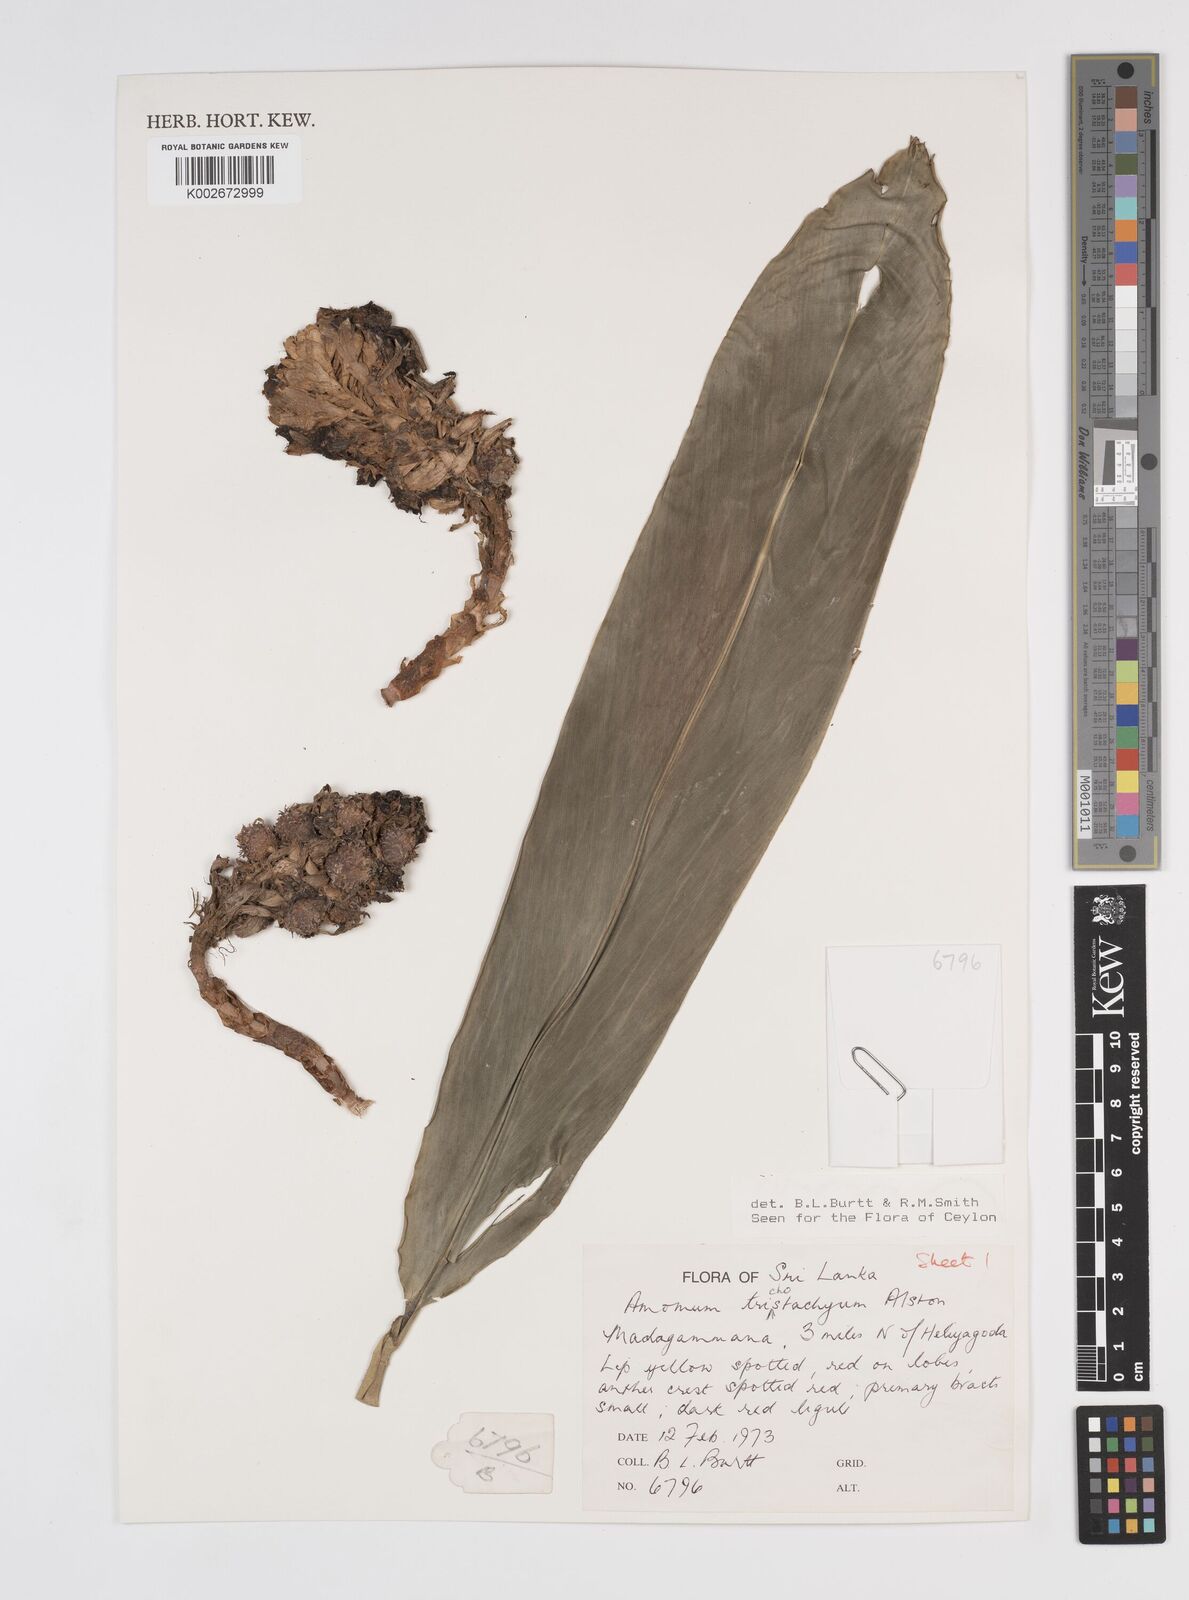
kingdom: Plantae
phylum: Tracheophyta
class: Liliopsida
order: Zingiberales
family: Zingiberaceae
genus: Meistera
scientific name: Meistera trichostachya
